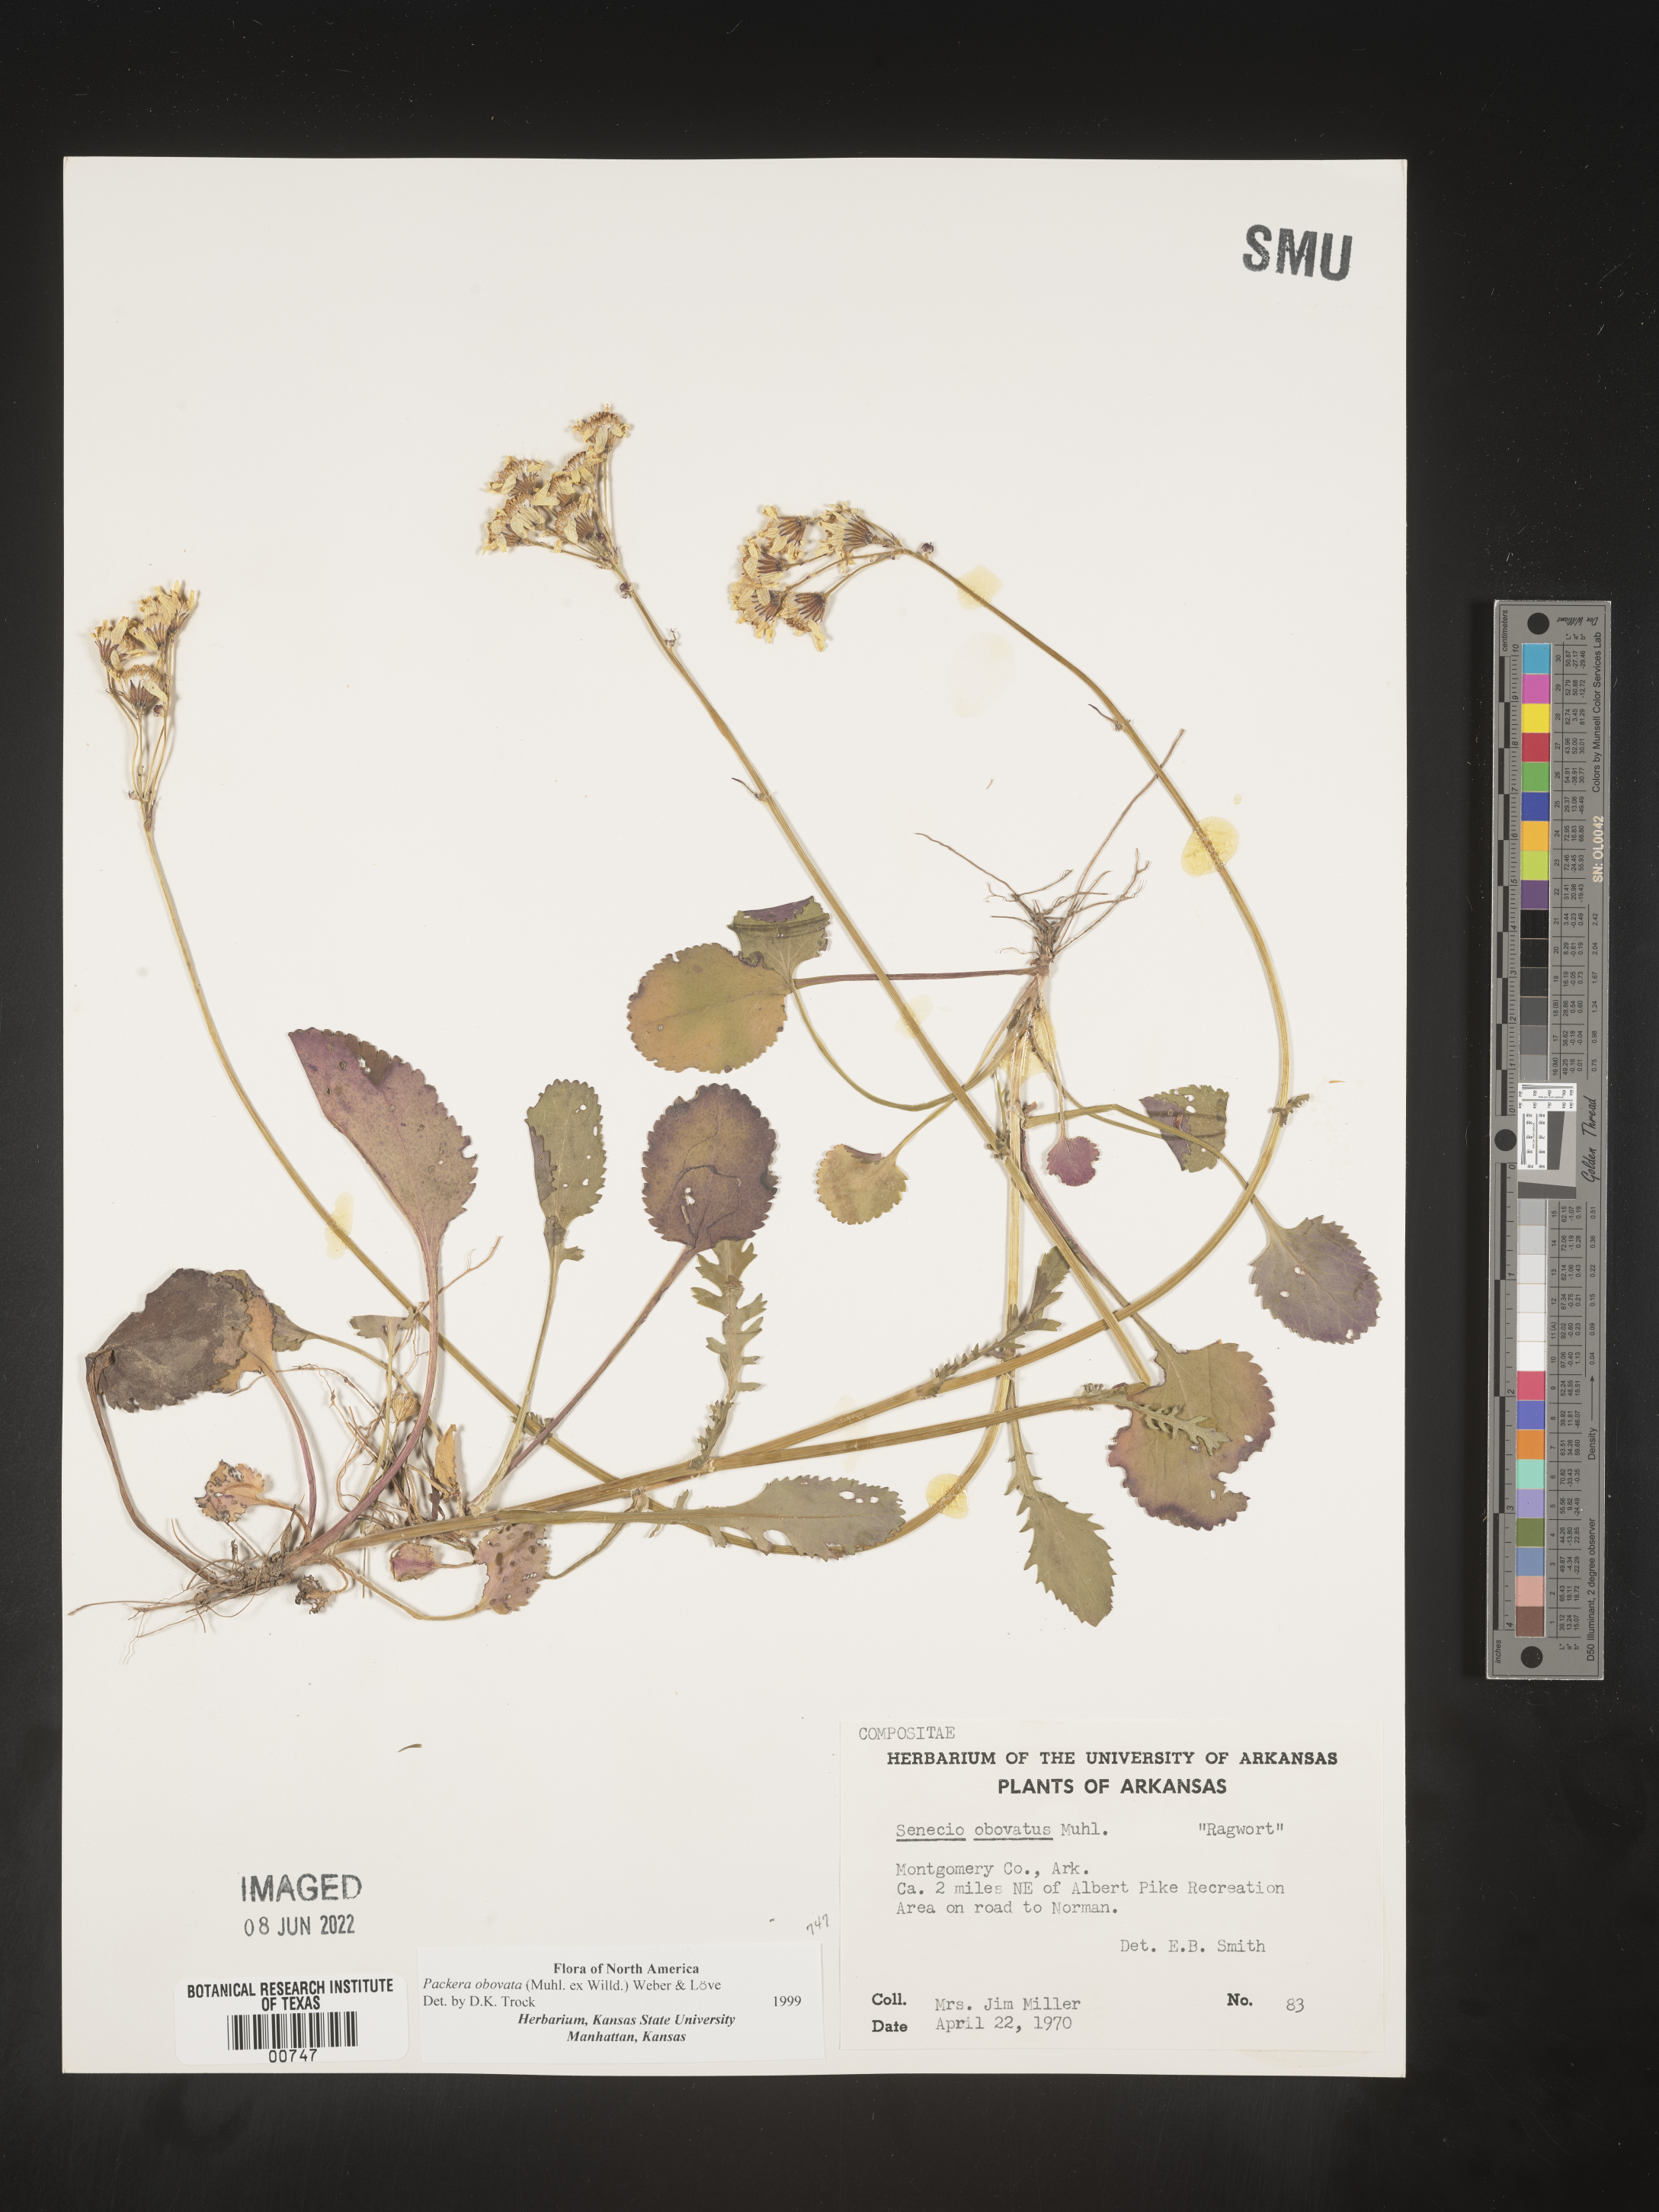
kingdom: Plantae
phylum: Tracheophyta
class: Magnoliopsida
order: Asterales
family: Asteraceae
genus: Packera
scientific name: Packera obovata
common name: Round-leaf ragwort
